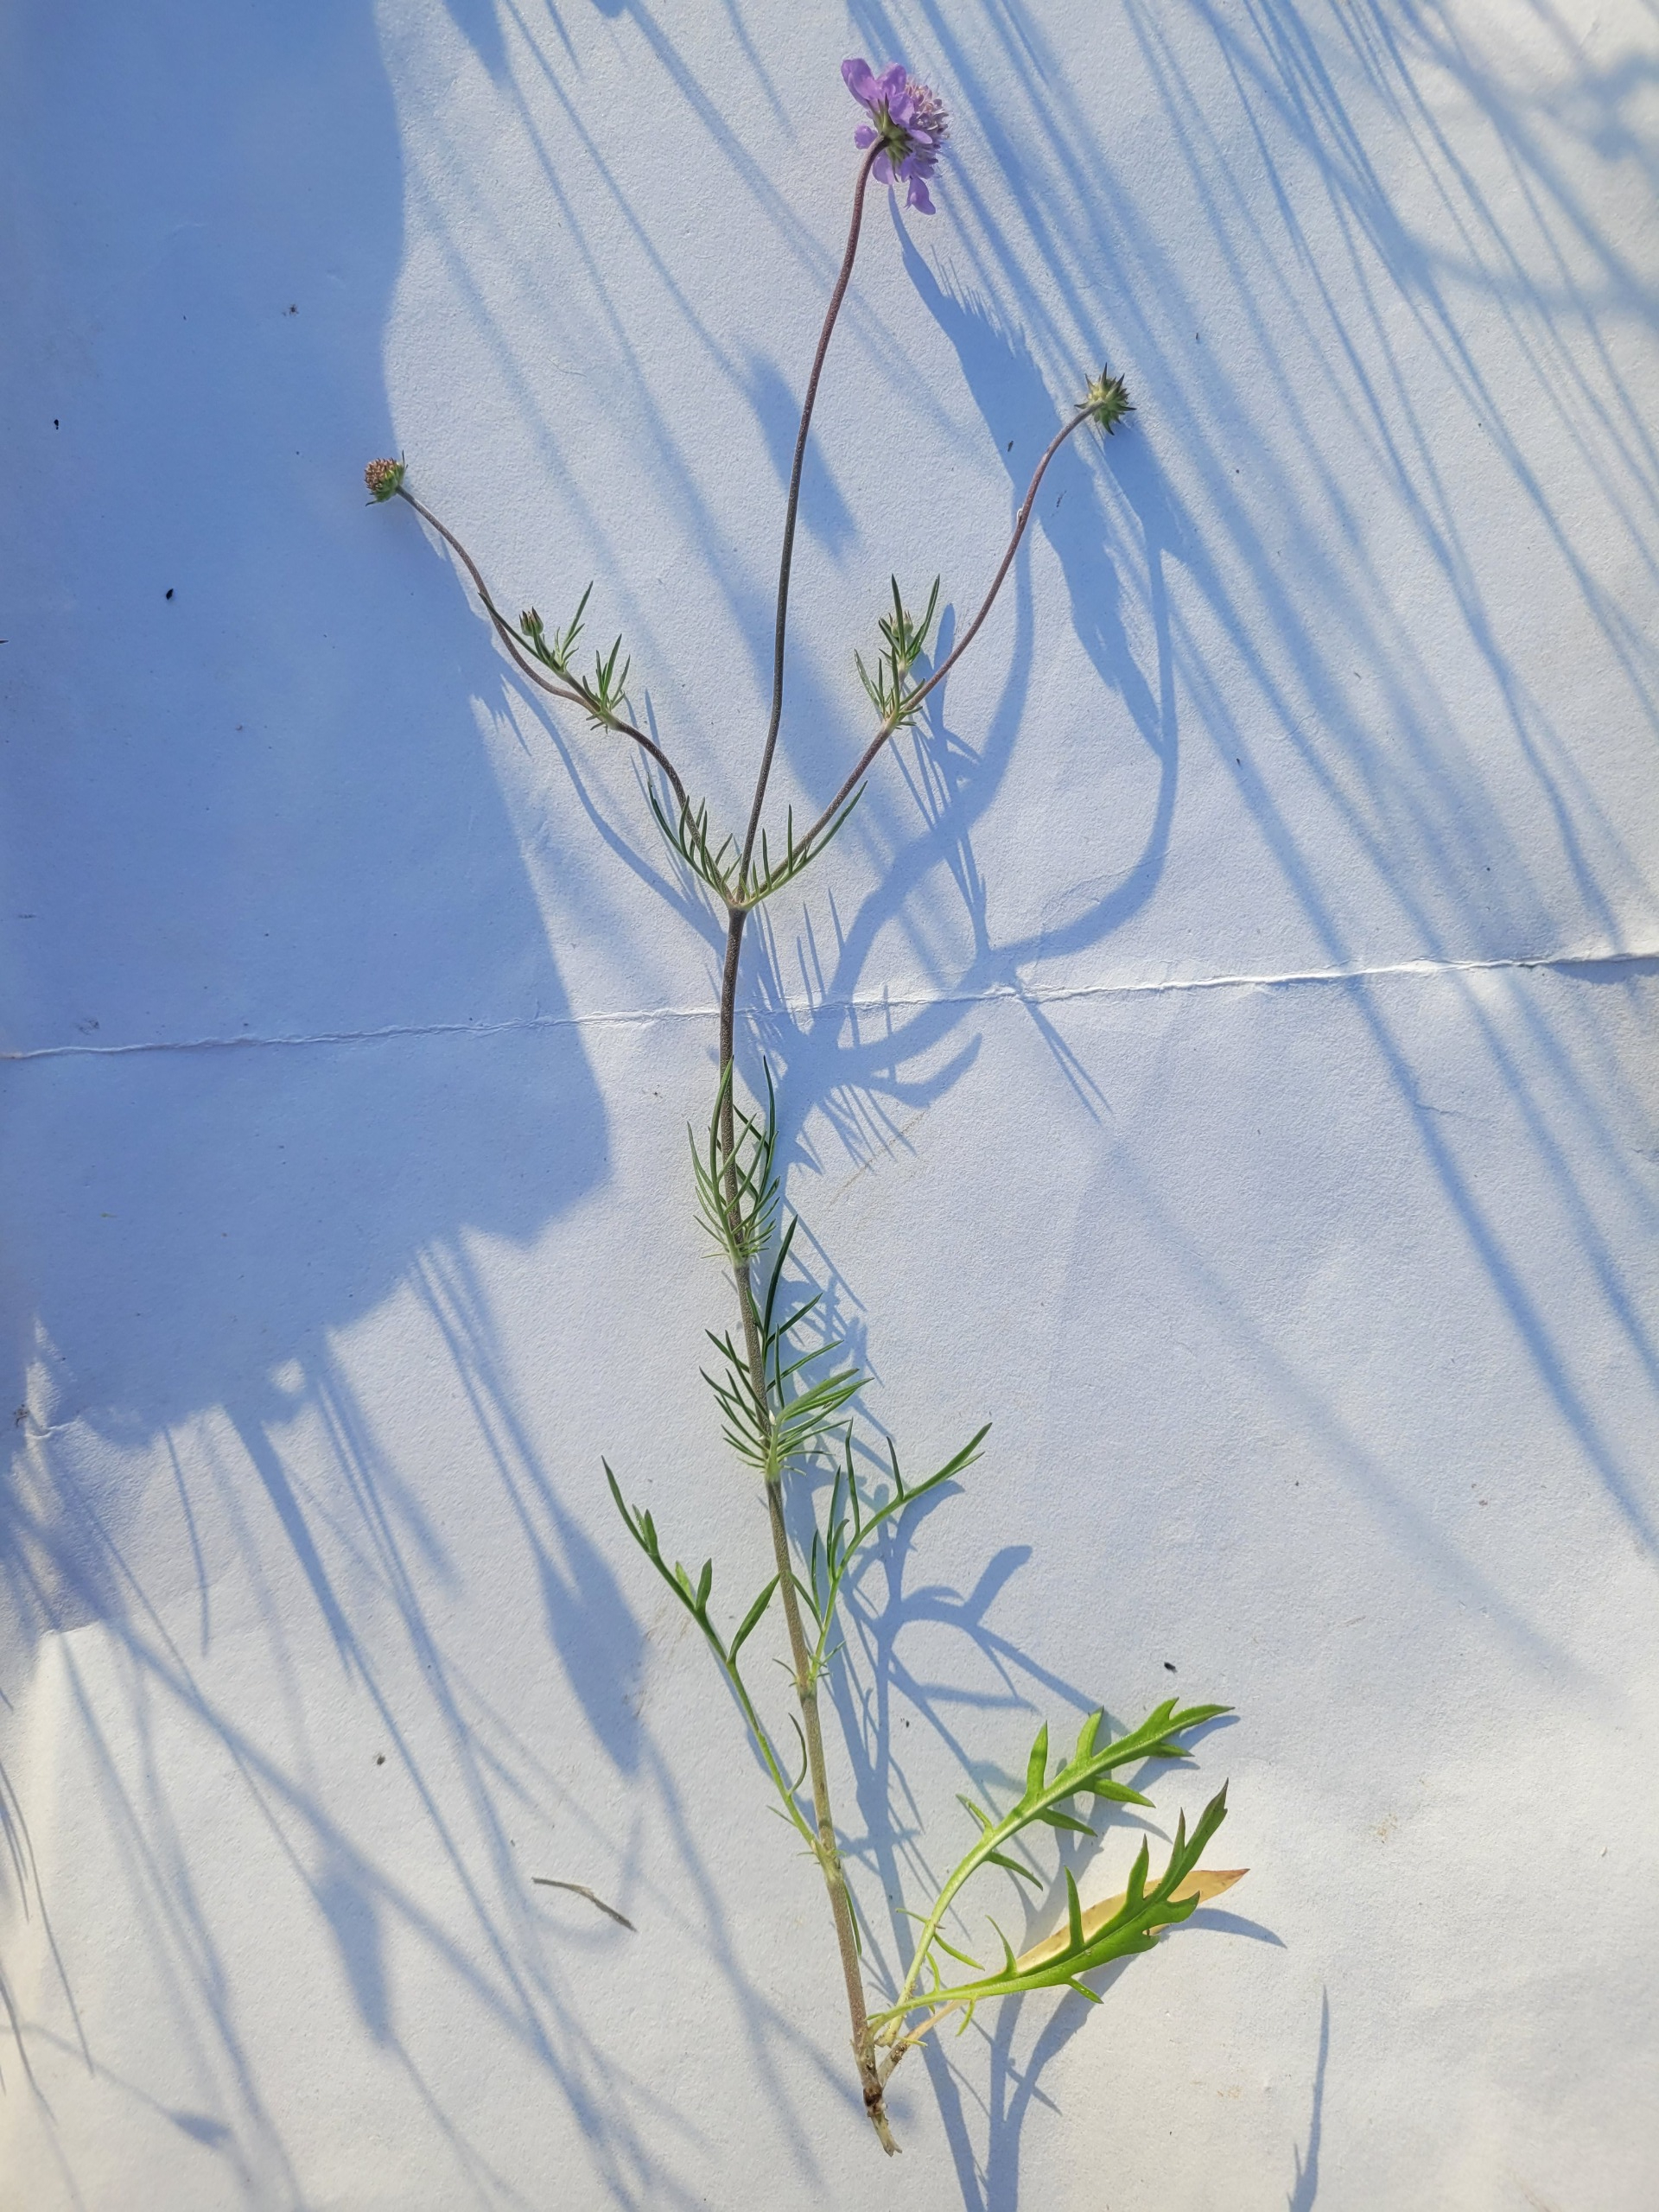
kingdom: Plantae
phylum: Tracheophyta
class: Magnoliopsida
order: Dipsacales
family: Caprifoliaceae
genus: Scabiosa
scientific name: Scabiosa canescens
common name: Vellugtende skabiose
